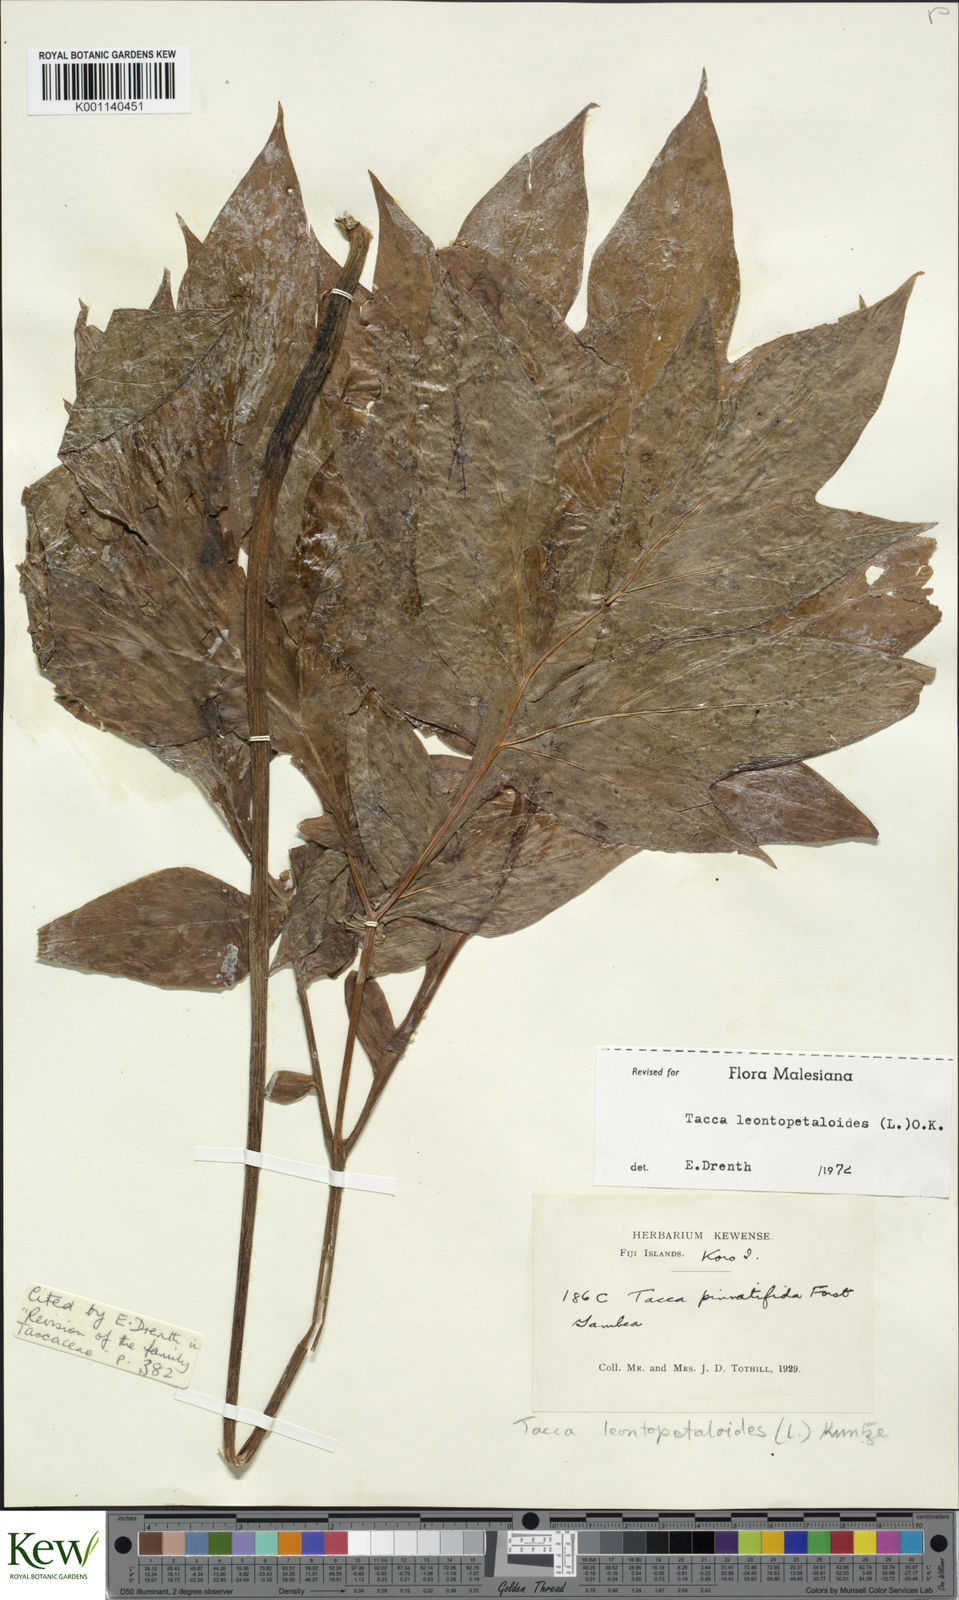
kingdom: Plantae
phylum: Tracheophyta
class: Liliopsida
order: Dioscoreales
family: Dioscoreaceae
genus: Tacca
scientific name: Tacca leontopetaloides
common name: Arrowroot
